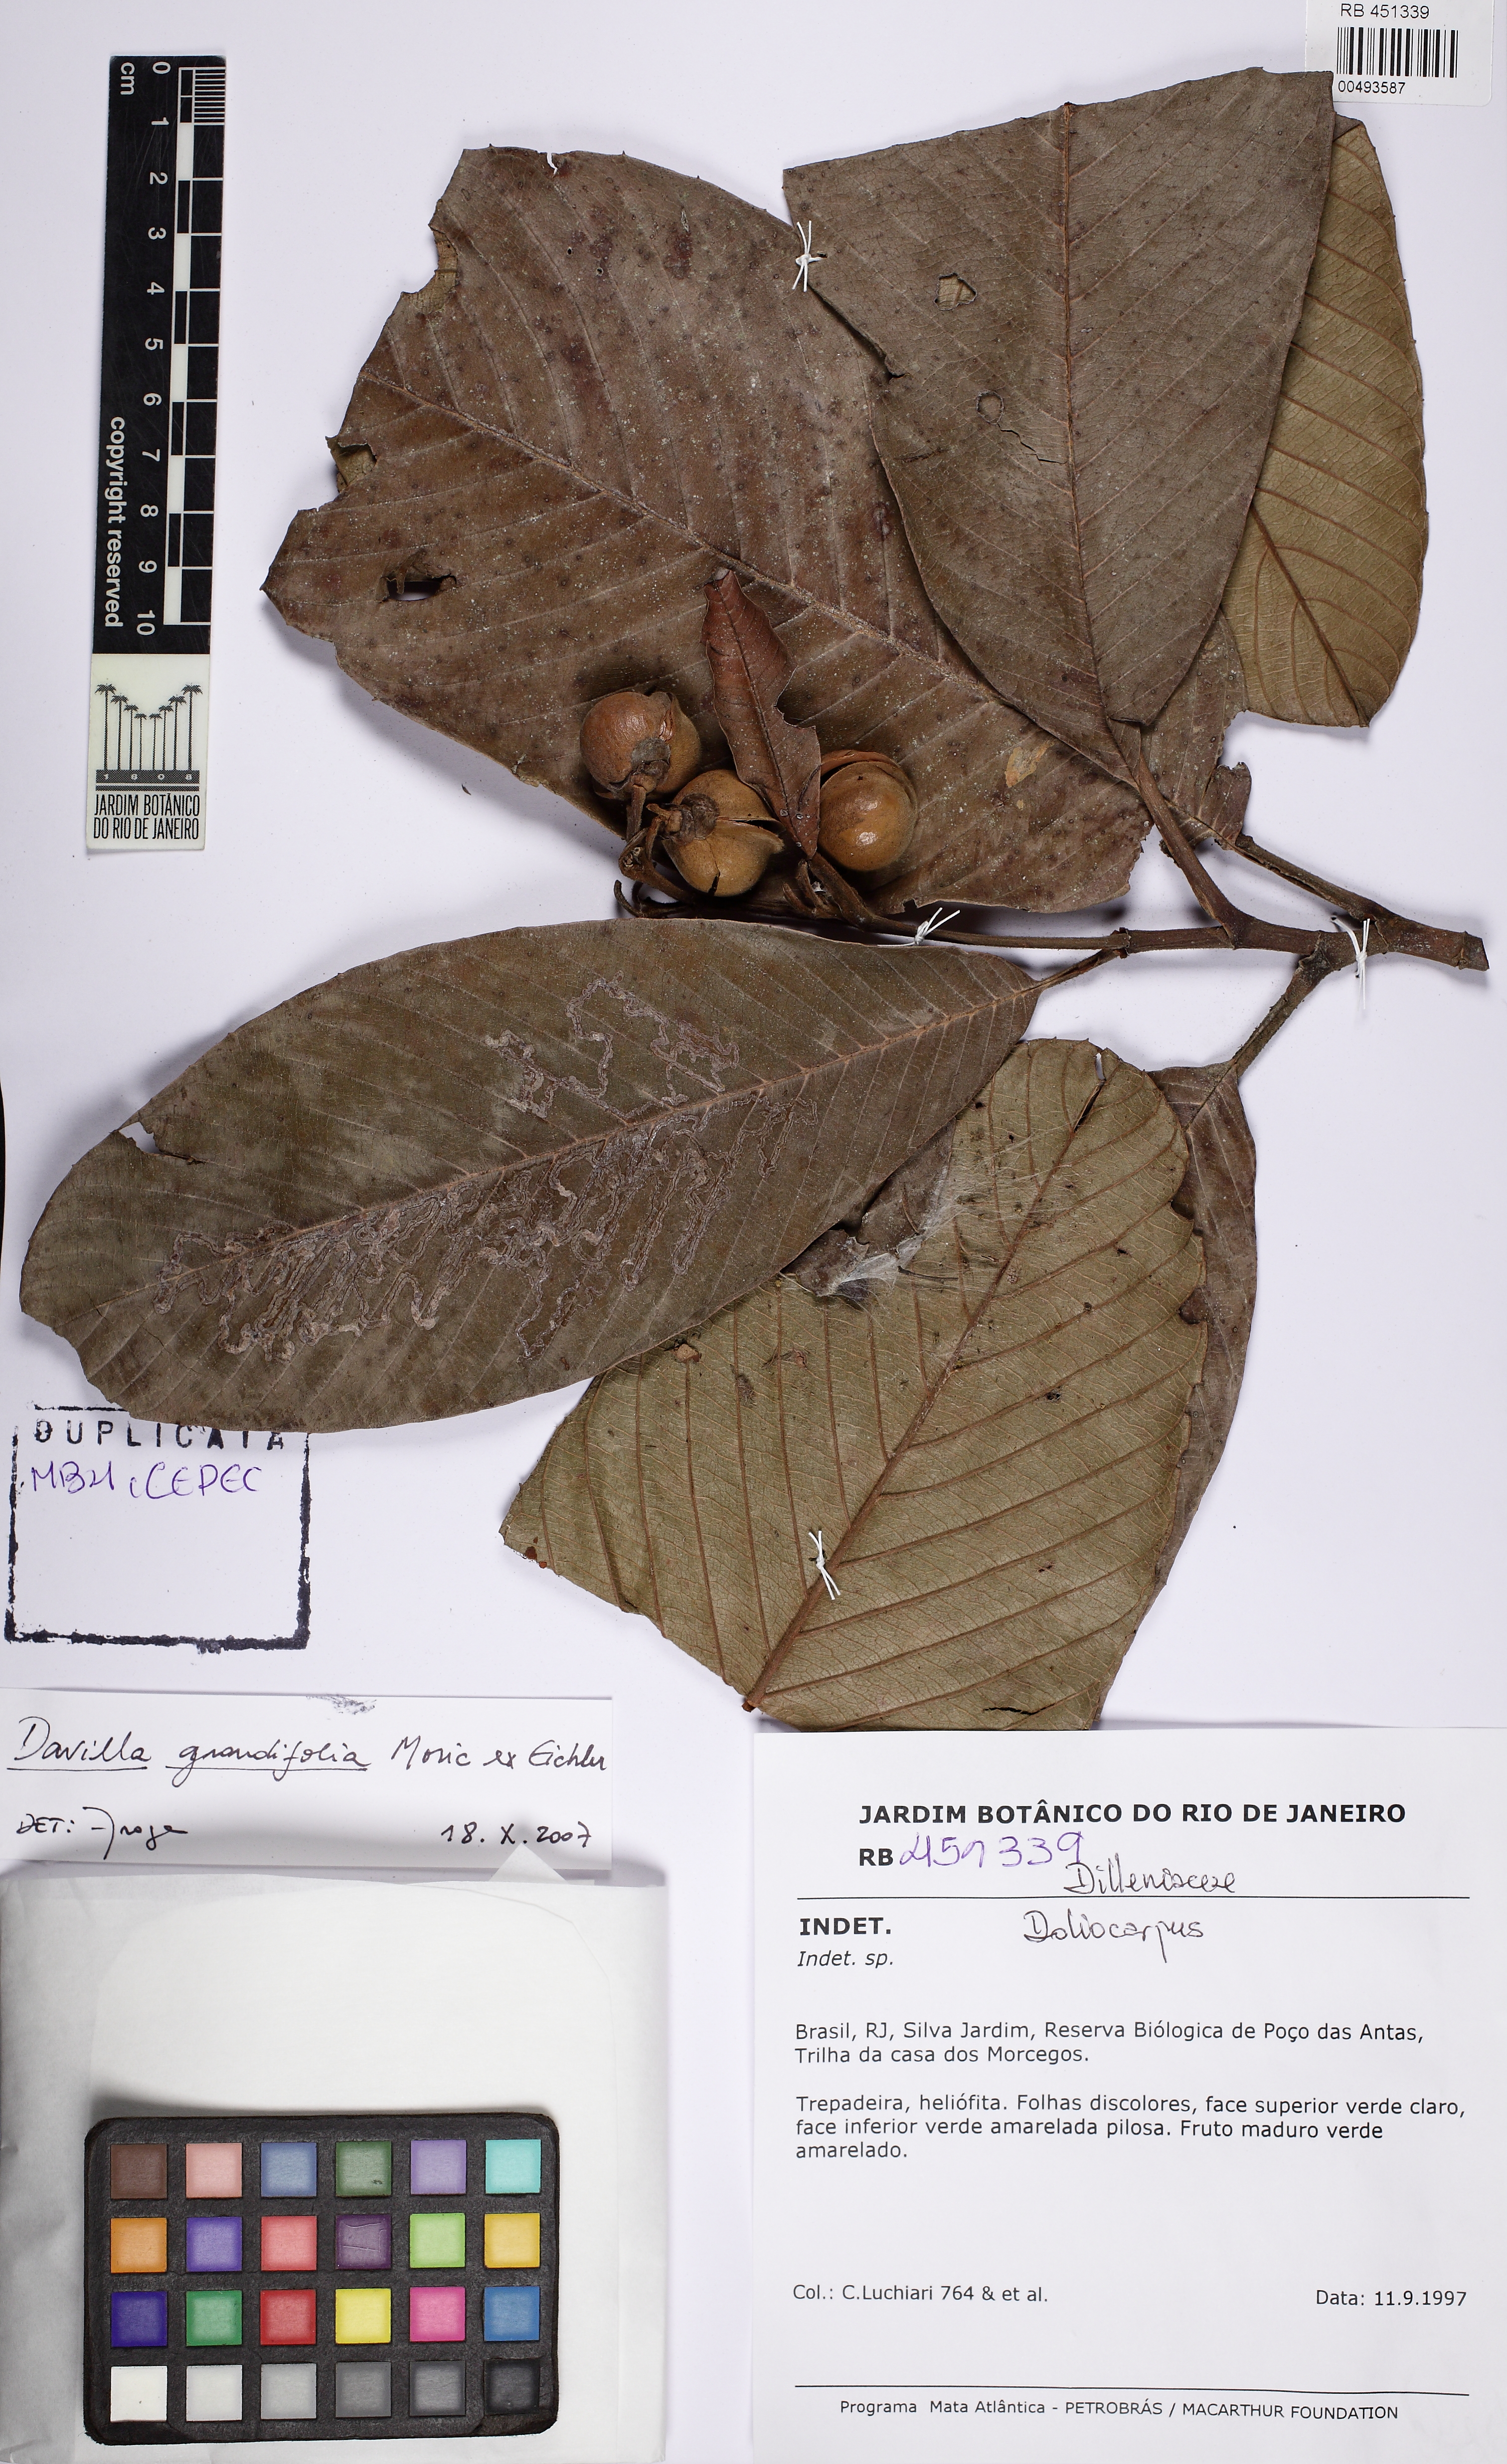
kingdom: Plantae
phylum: Tracheophyta
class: Magnoliopsida
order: Dilleniales
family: Dilleniaceae
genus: Davilla
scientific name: Davilla latifolia
